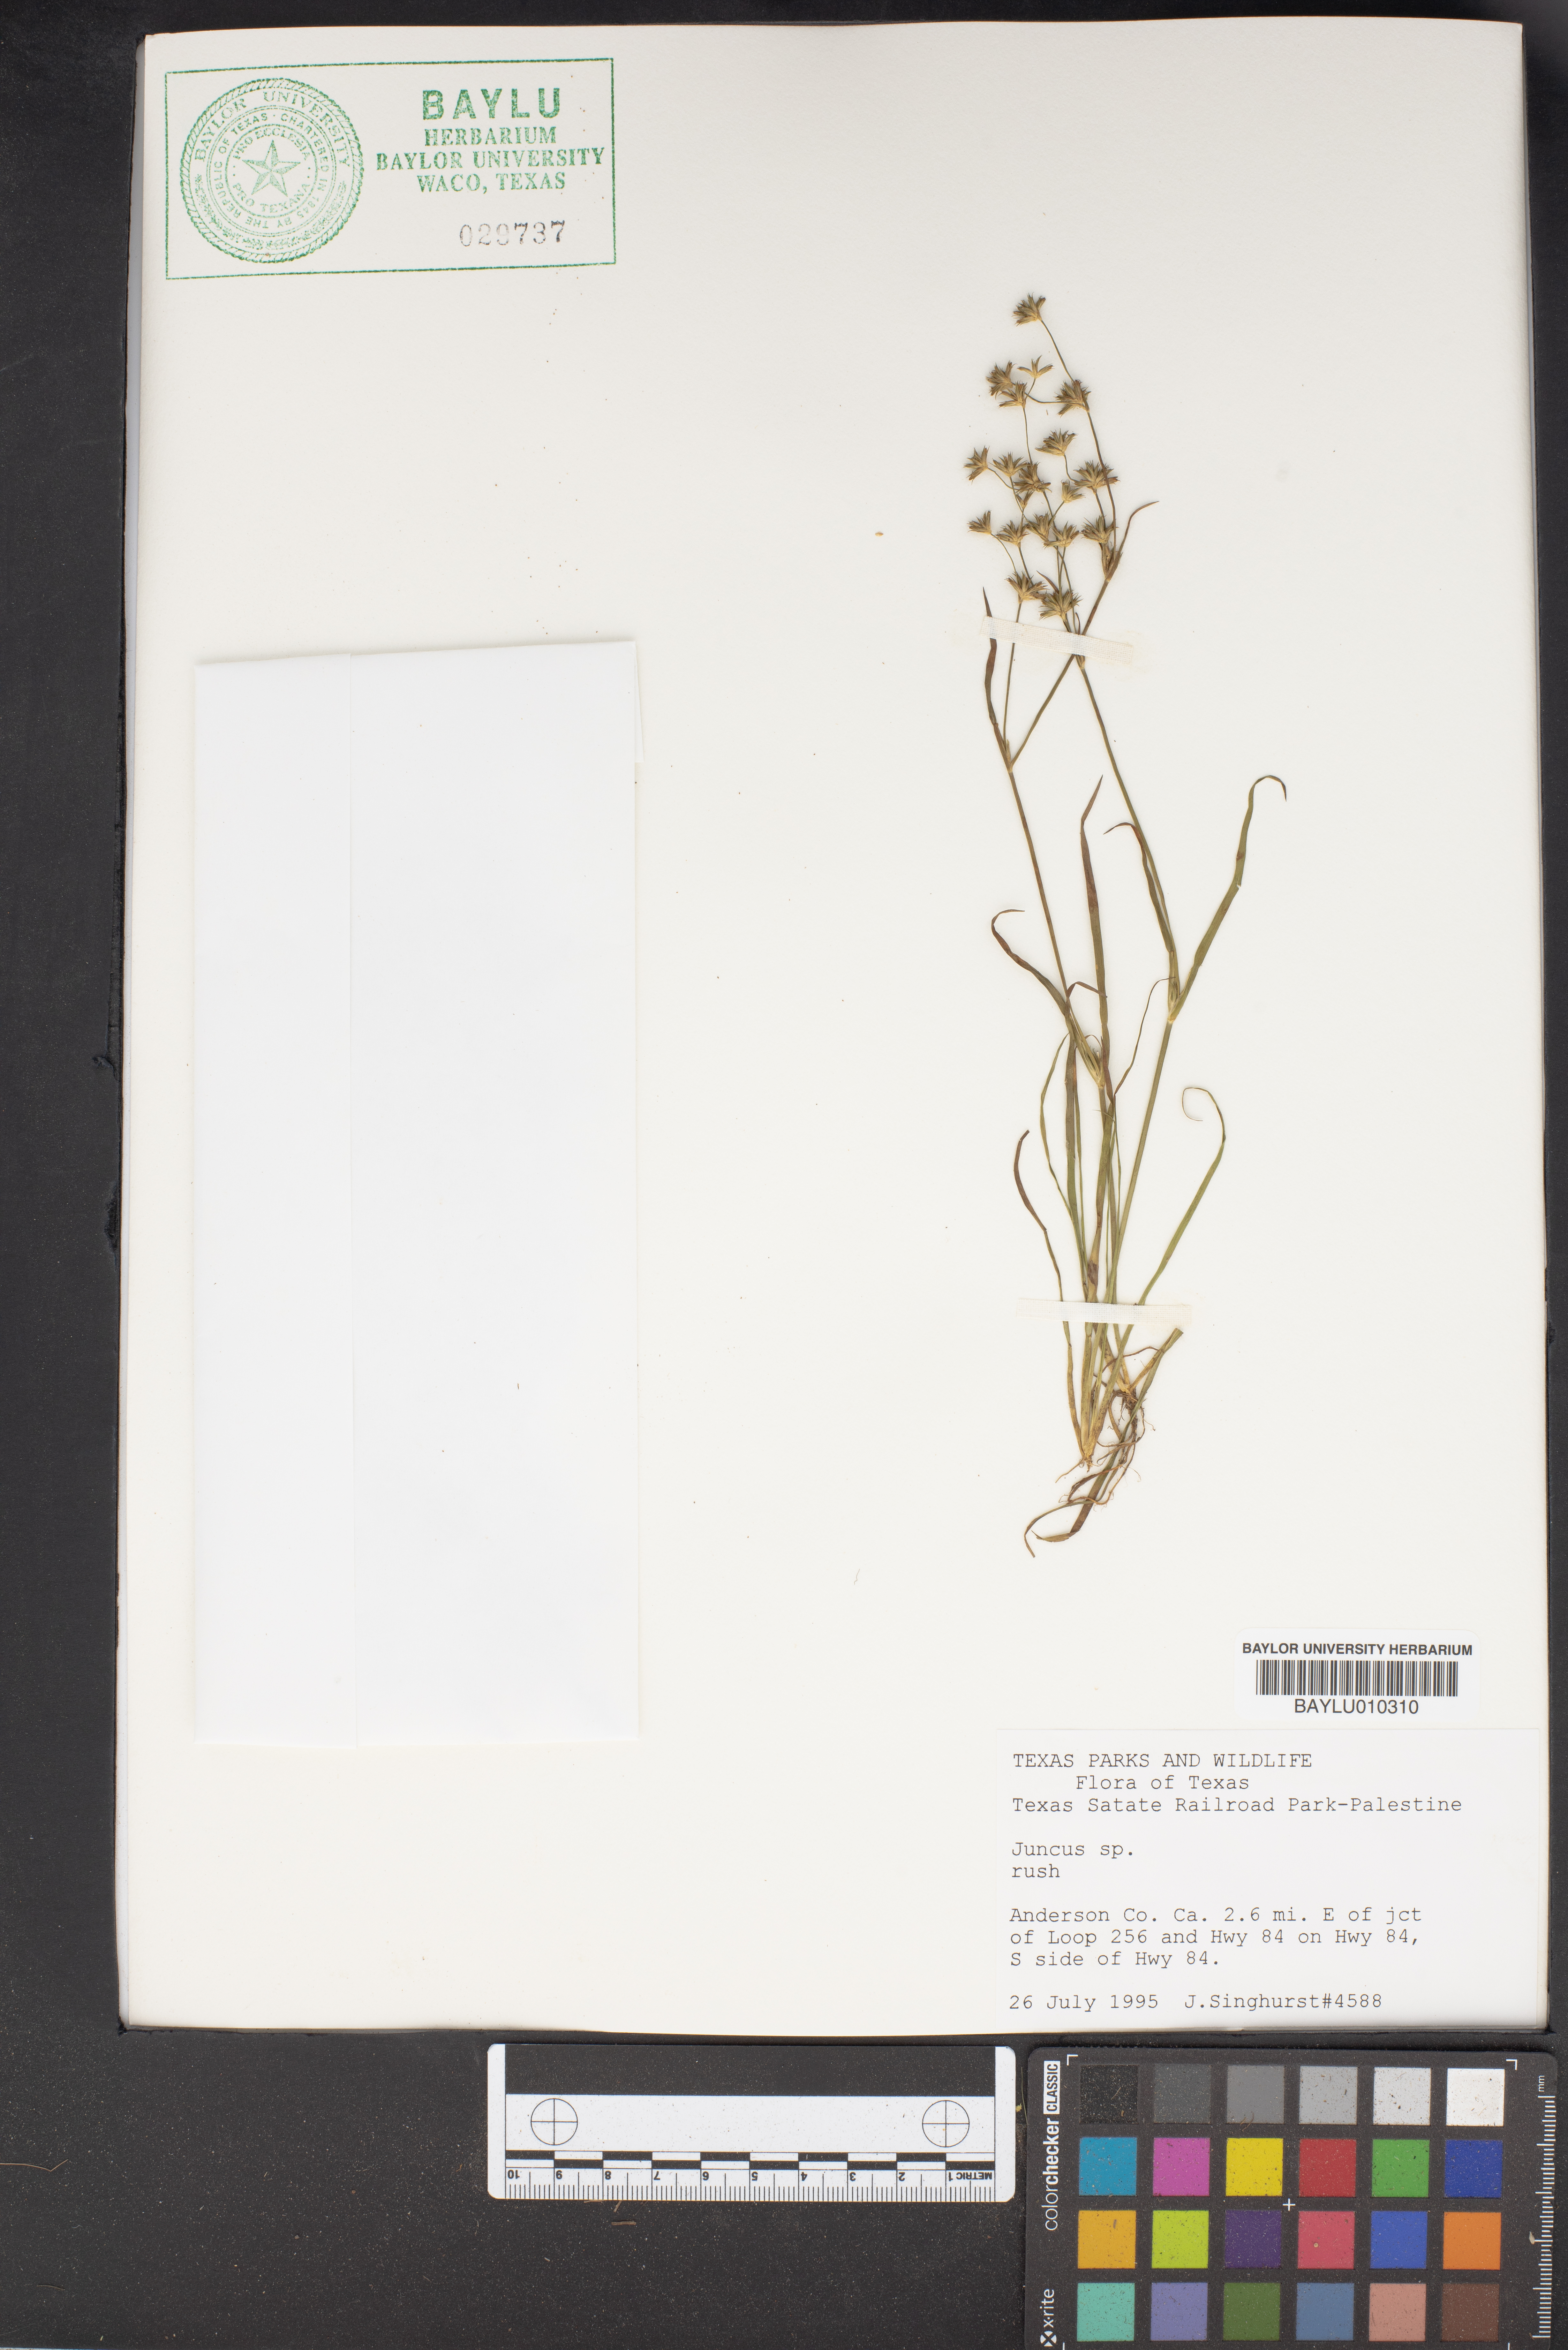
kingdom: Plantae
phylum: Tracheophyta
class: Liliopsida
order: Poales
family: Juncaceae
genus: Juncus
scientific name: Juncus
